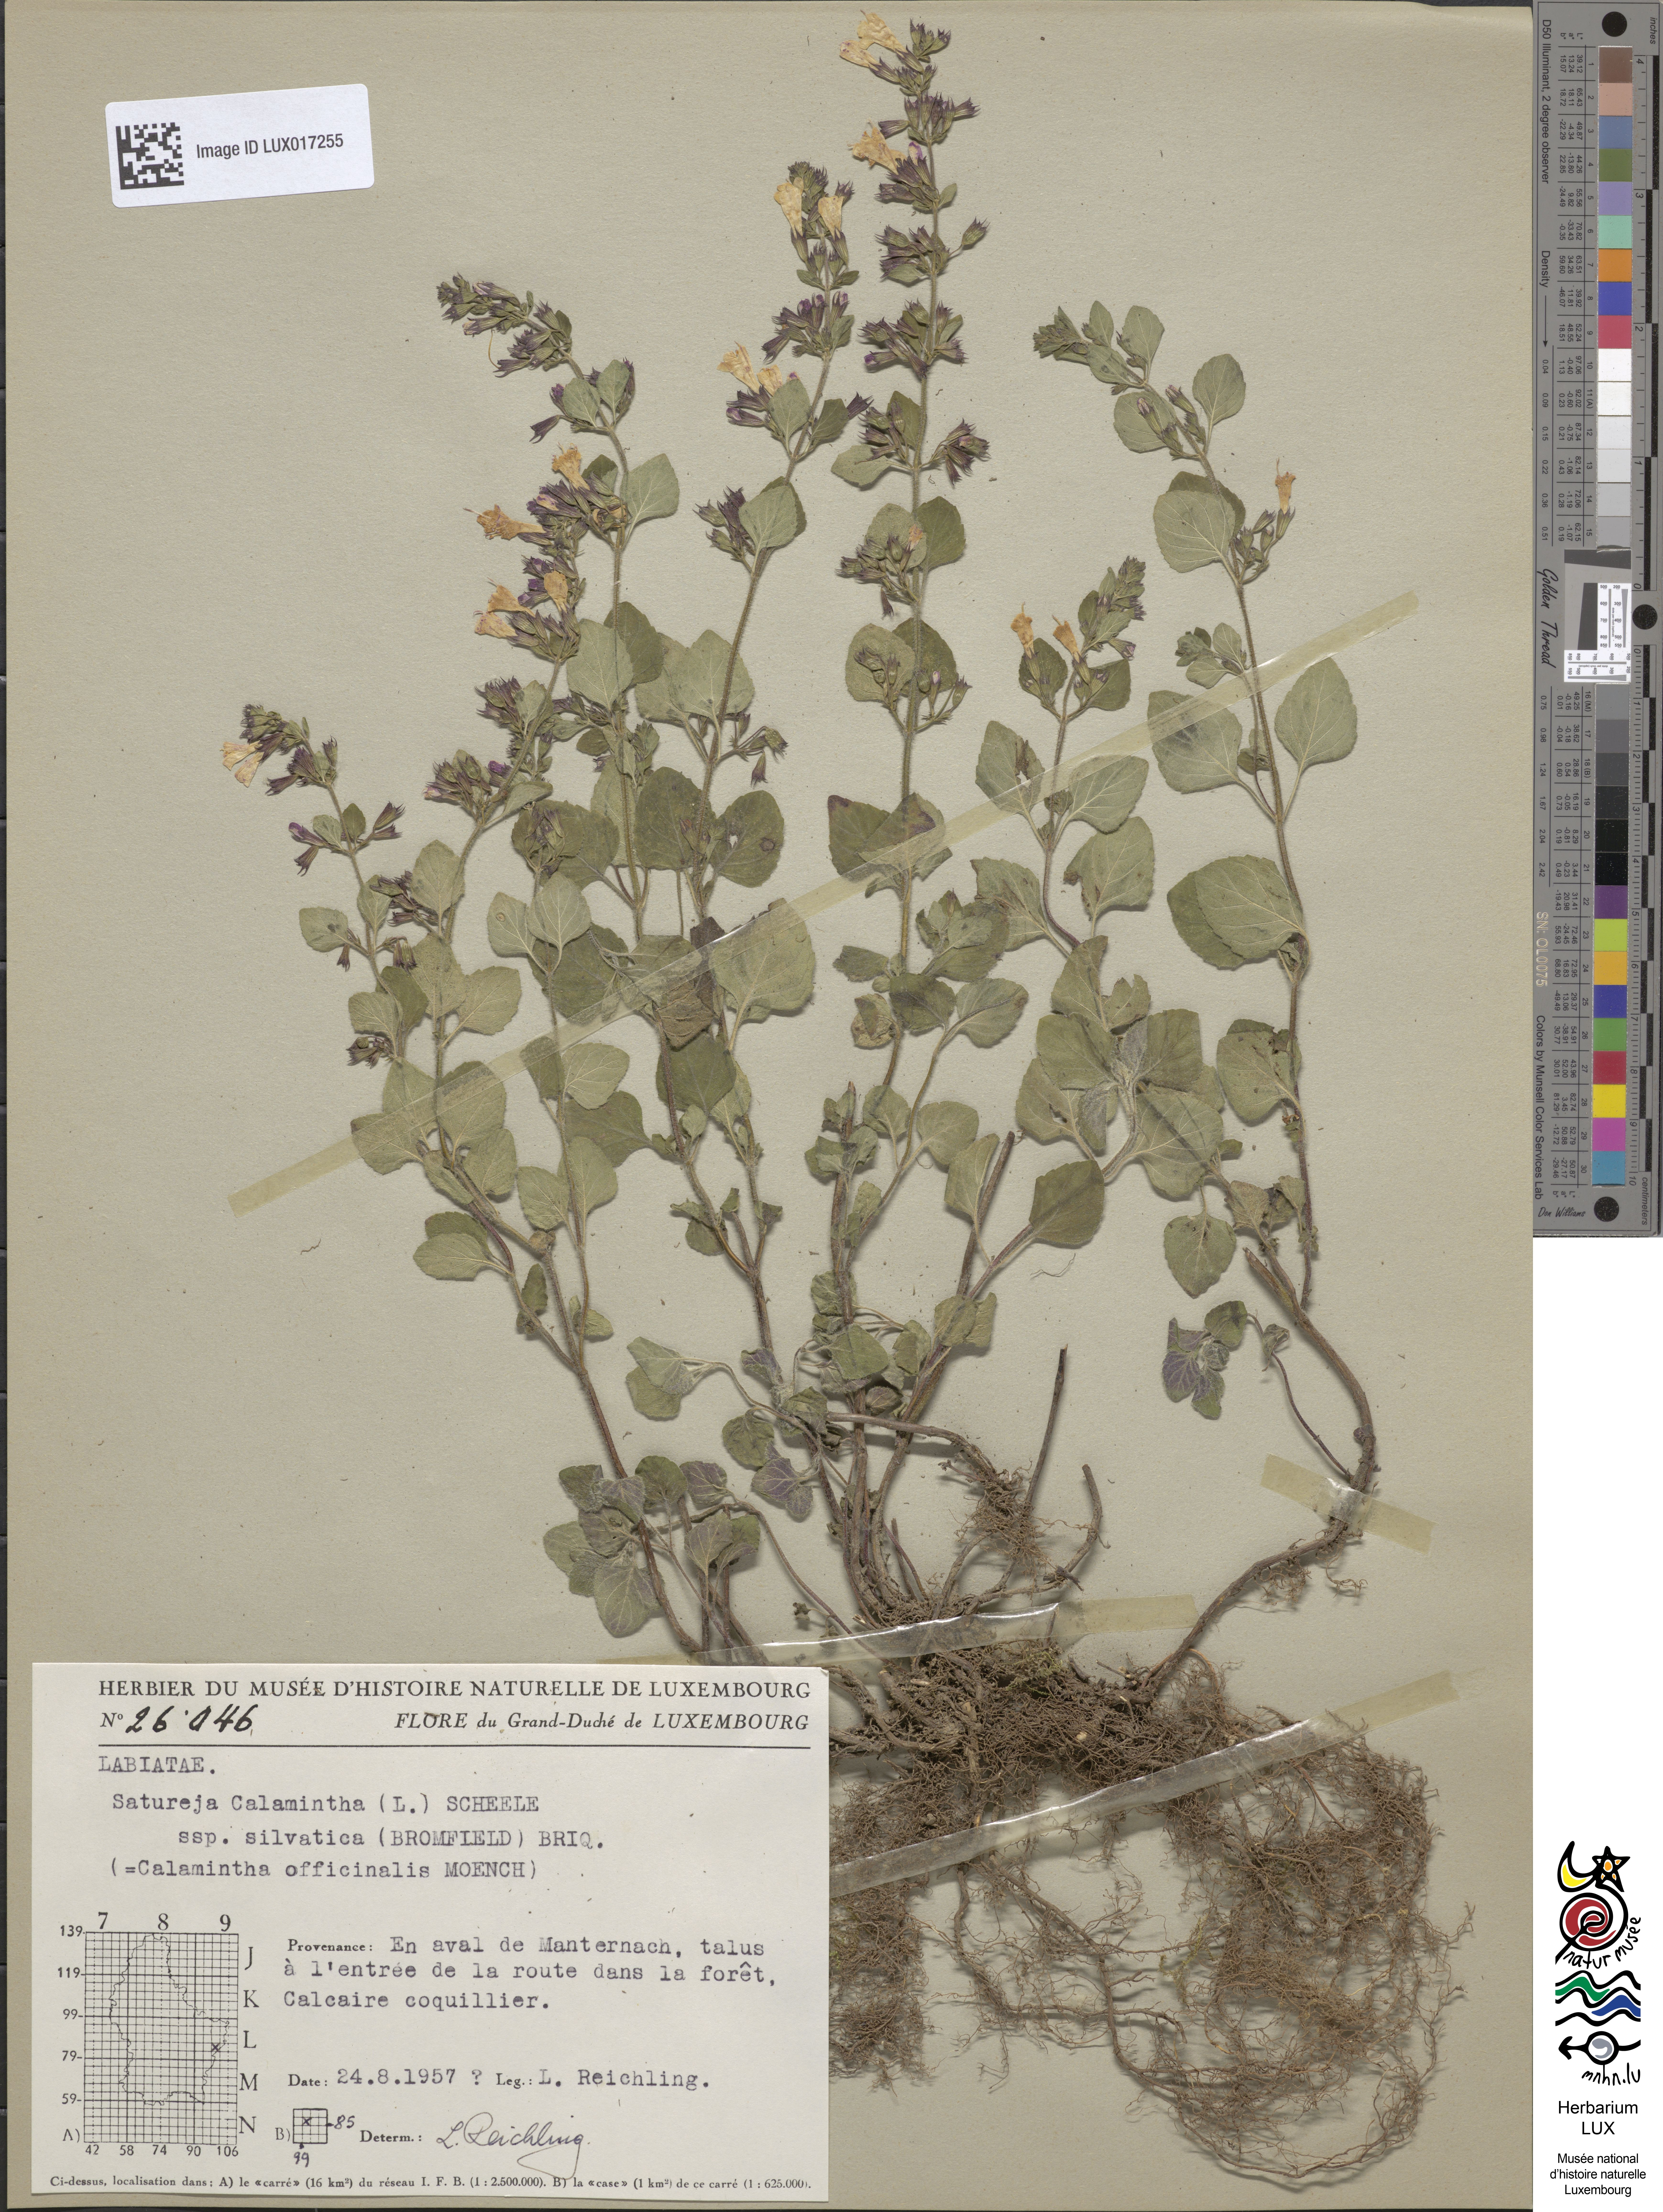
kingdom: Plantae
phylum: Tracheophyta
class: Magnoliopsida
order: Lamiales
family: Lamiaceae
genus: Clinopodium
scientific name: Clinopodium menthifolium
